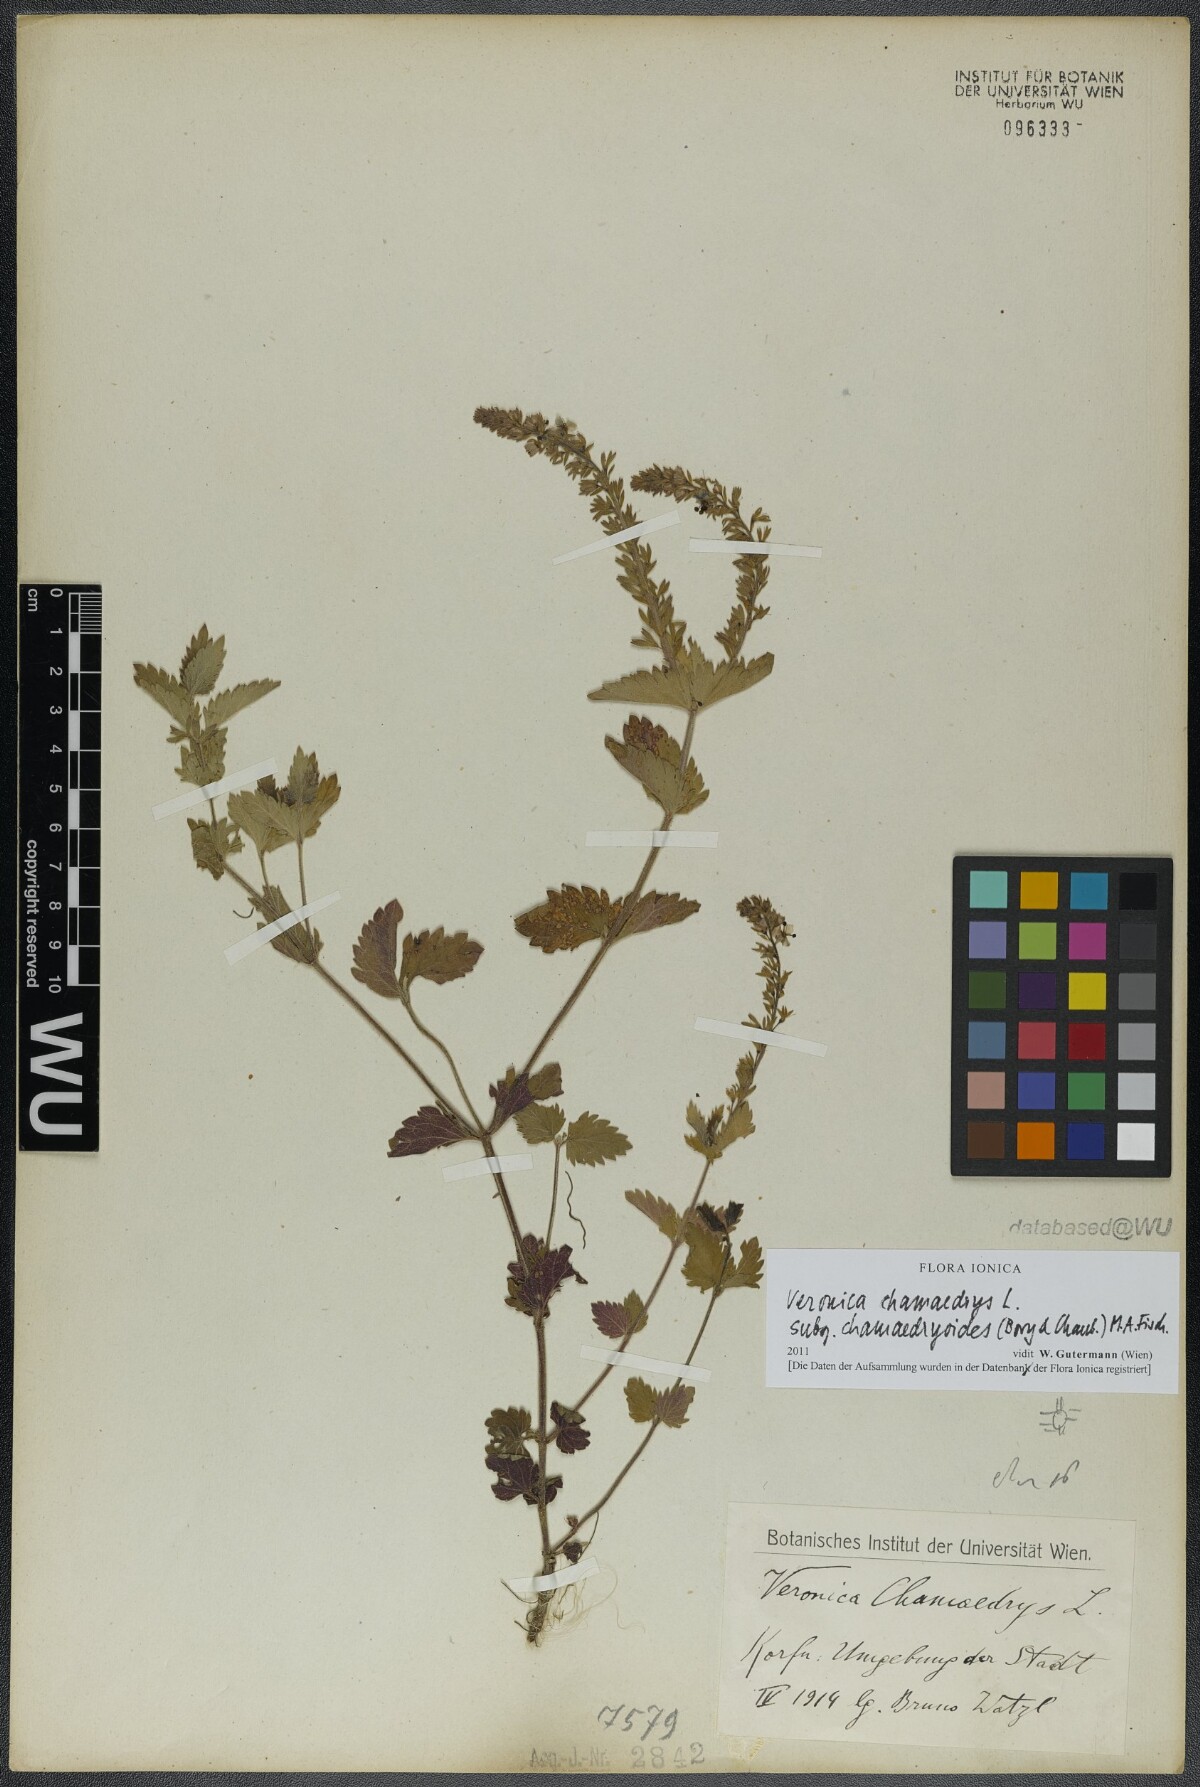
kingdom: Plantae
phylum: Tracheophyta
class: Magnoliopsida
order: Lamiales
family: Plantaginaceae
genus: Veronica
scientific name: Veronica chamaedrys
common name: Germander speedwell
